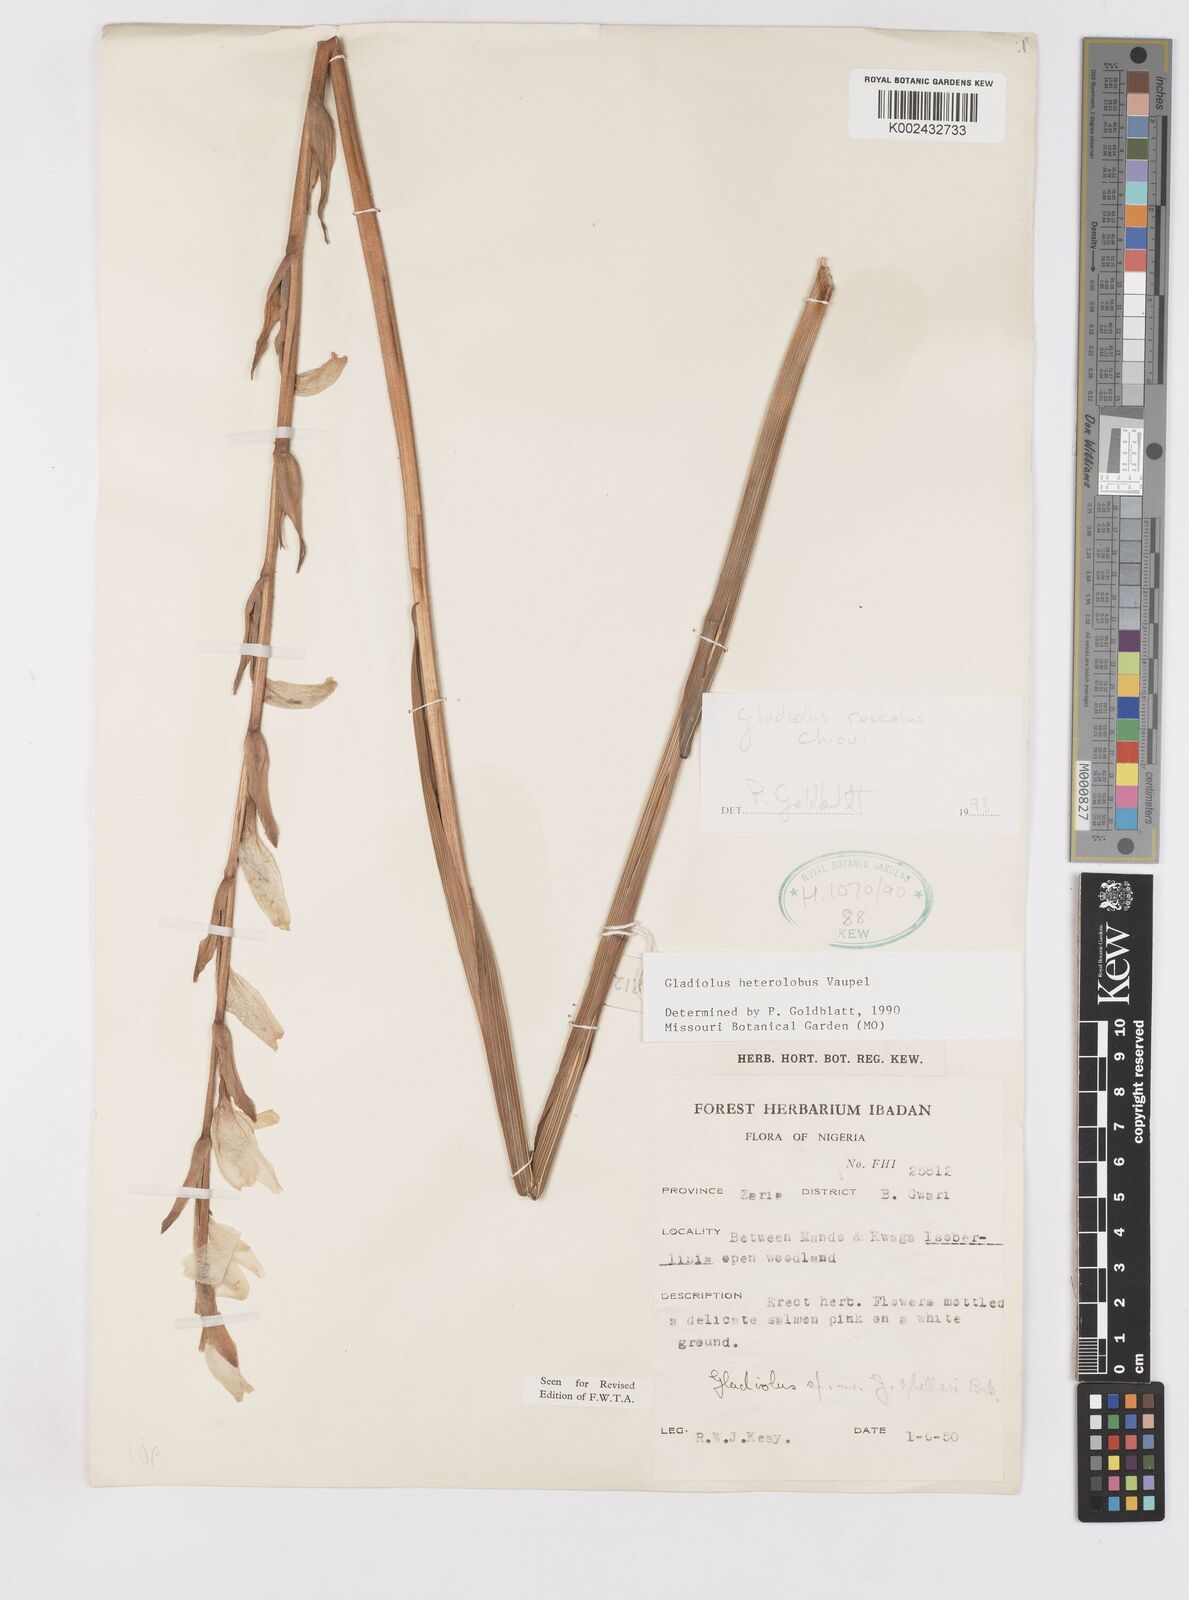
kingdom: Plantae
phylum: Tracheophyta
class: Liliopsida
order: Asparagales
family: Iridaceae
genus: Gladiolus
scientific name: Gladiolus roseolus
